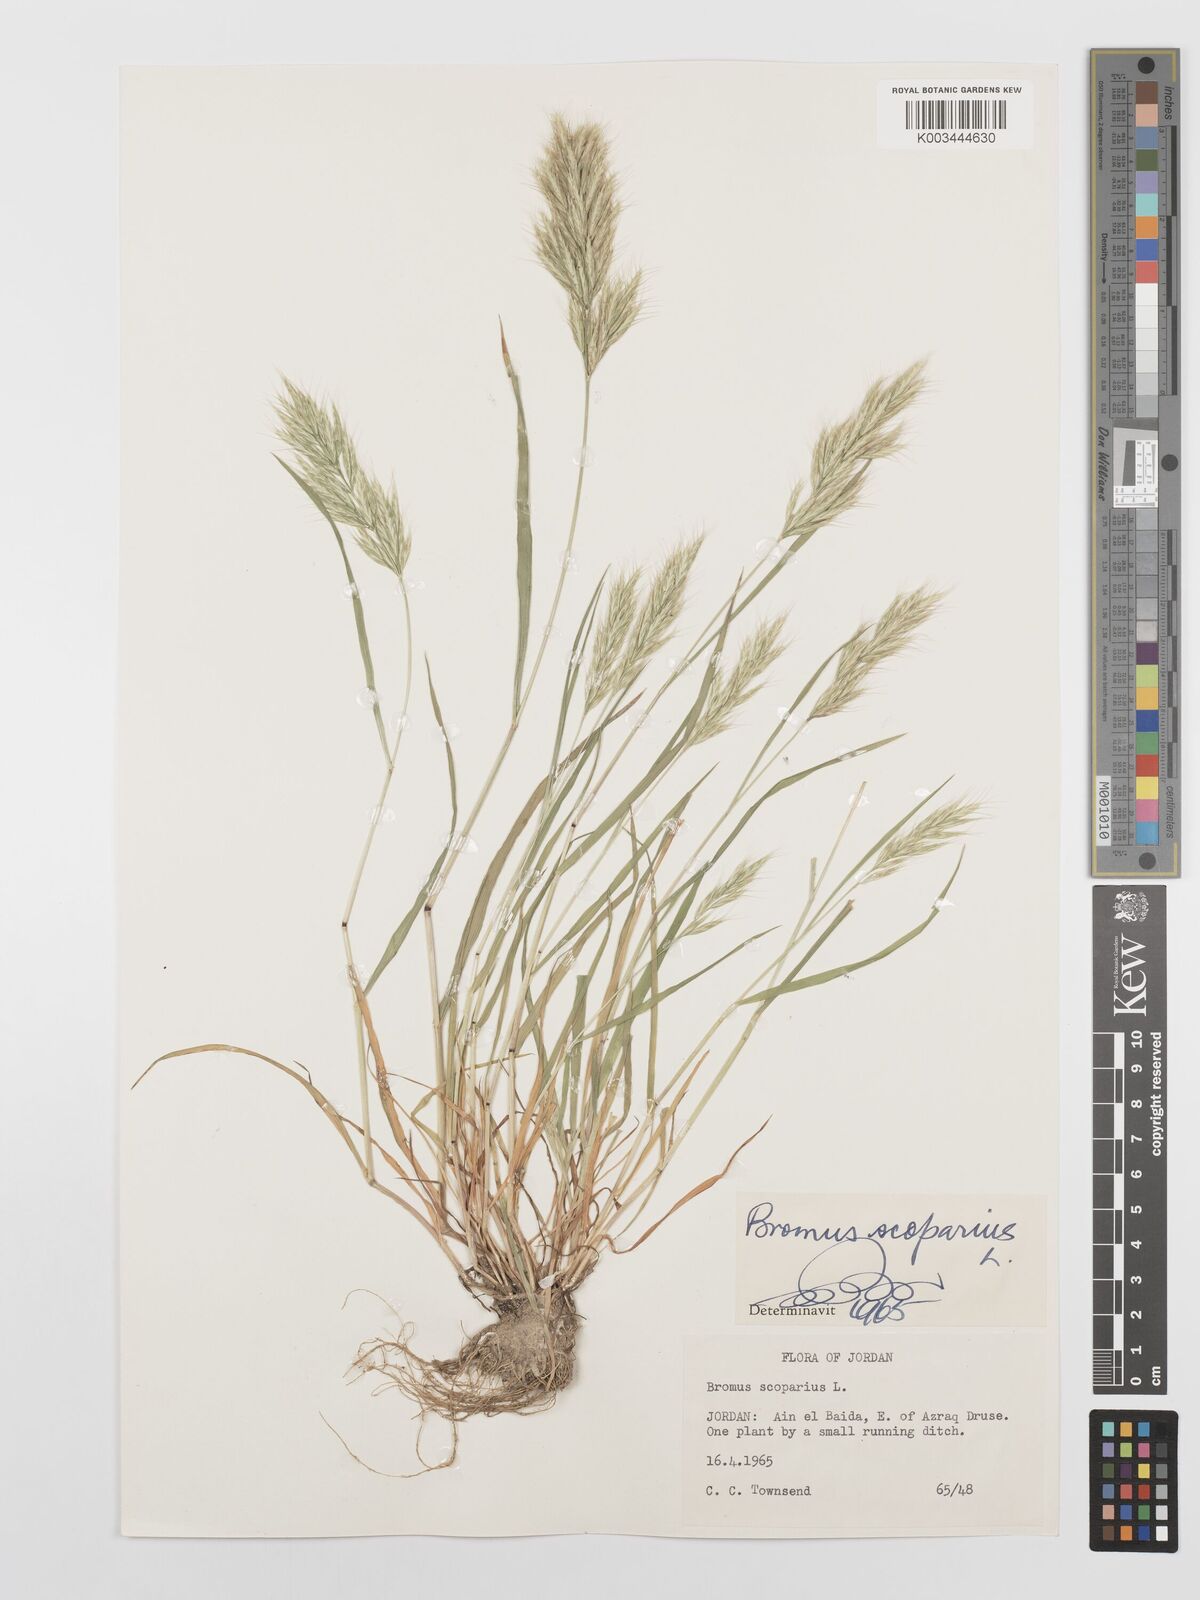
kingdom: Plantae
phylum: Tracheophyta
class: Liliopsida
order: Poales
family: Poaceae
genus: Bromus
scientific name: Bromus scoparius
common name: Broom brome
